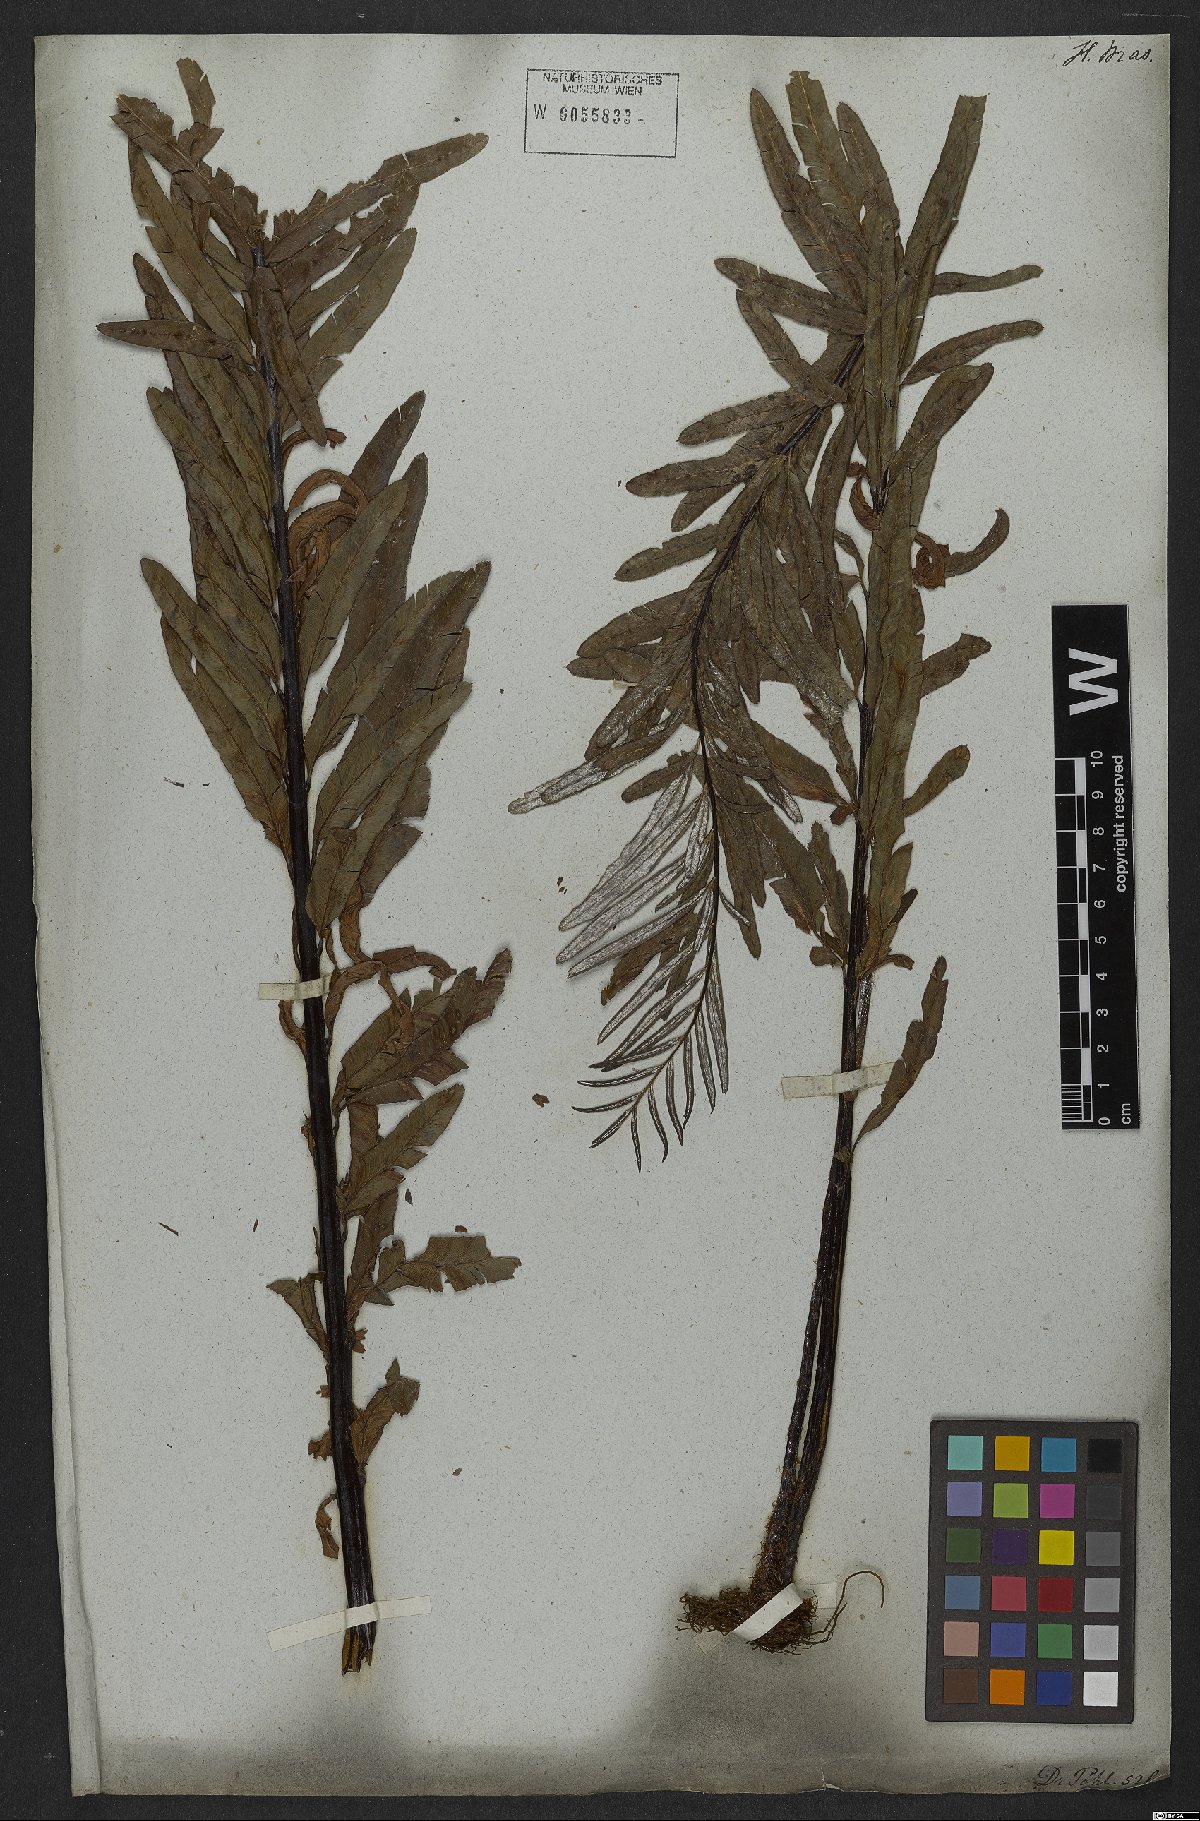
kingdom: Plantae
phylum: Tracheophyta
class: Polypodiopsida
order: Polypodiales
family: Pteridaceae
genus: Pityrogramma
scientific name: Pityrogramma trifoliata
